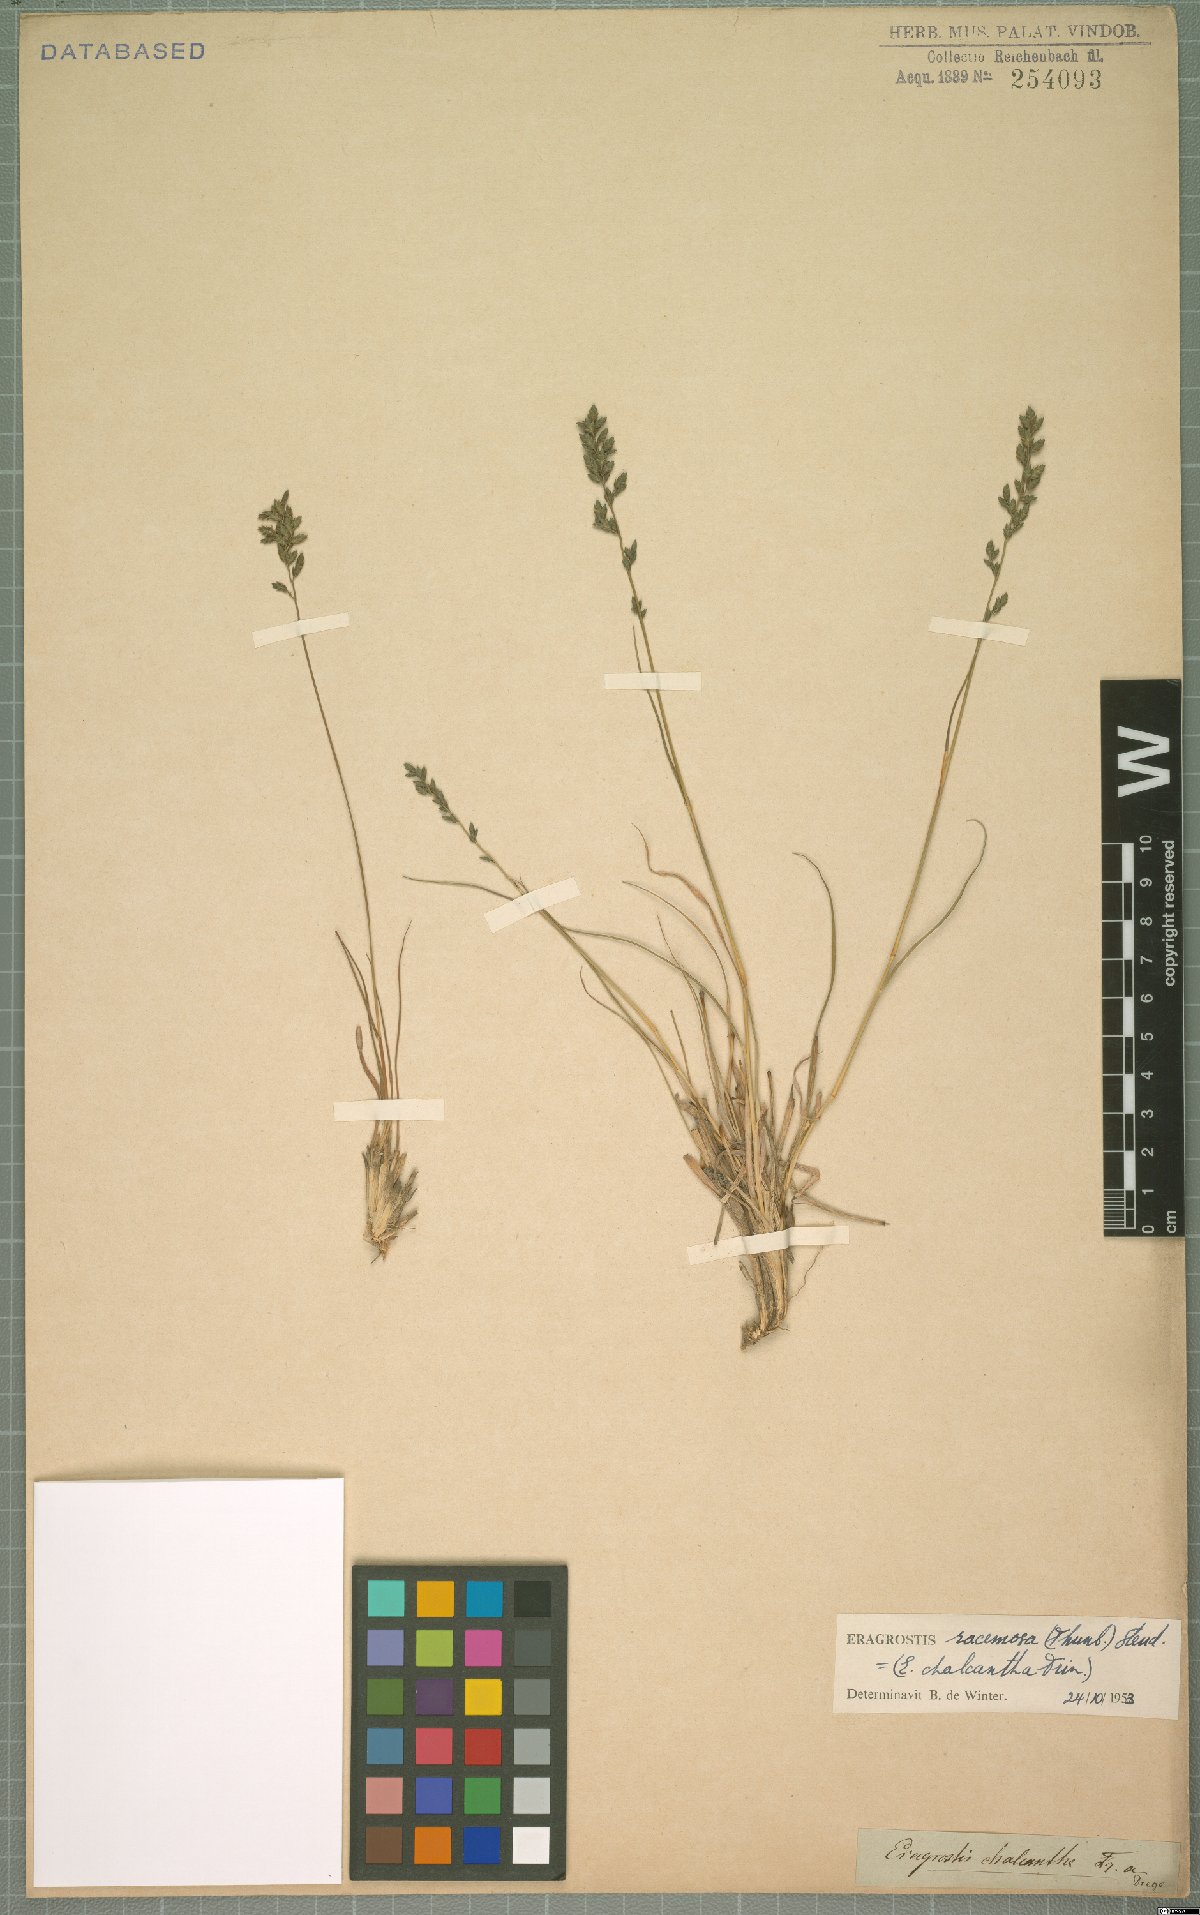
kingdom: Plantae
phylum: Tracheophyta
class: Liliopsida
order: Poales
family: Poaceae
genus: Eragrostis
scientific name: Eragrostis racemosa
